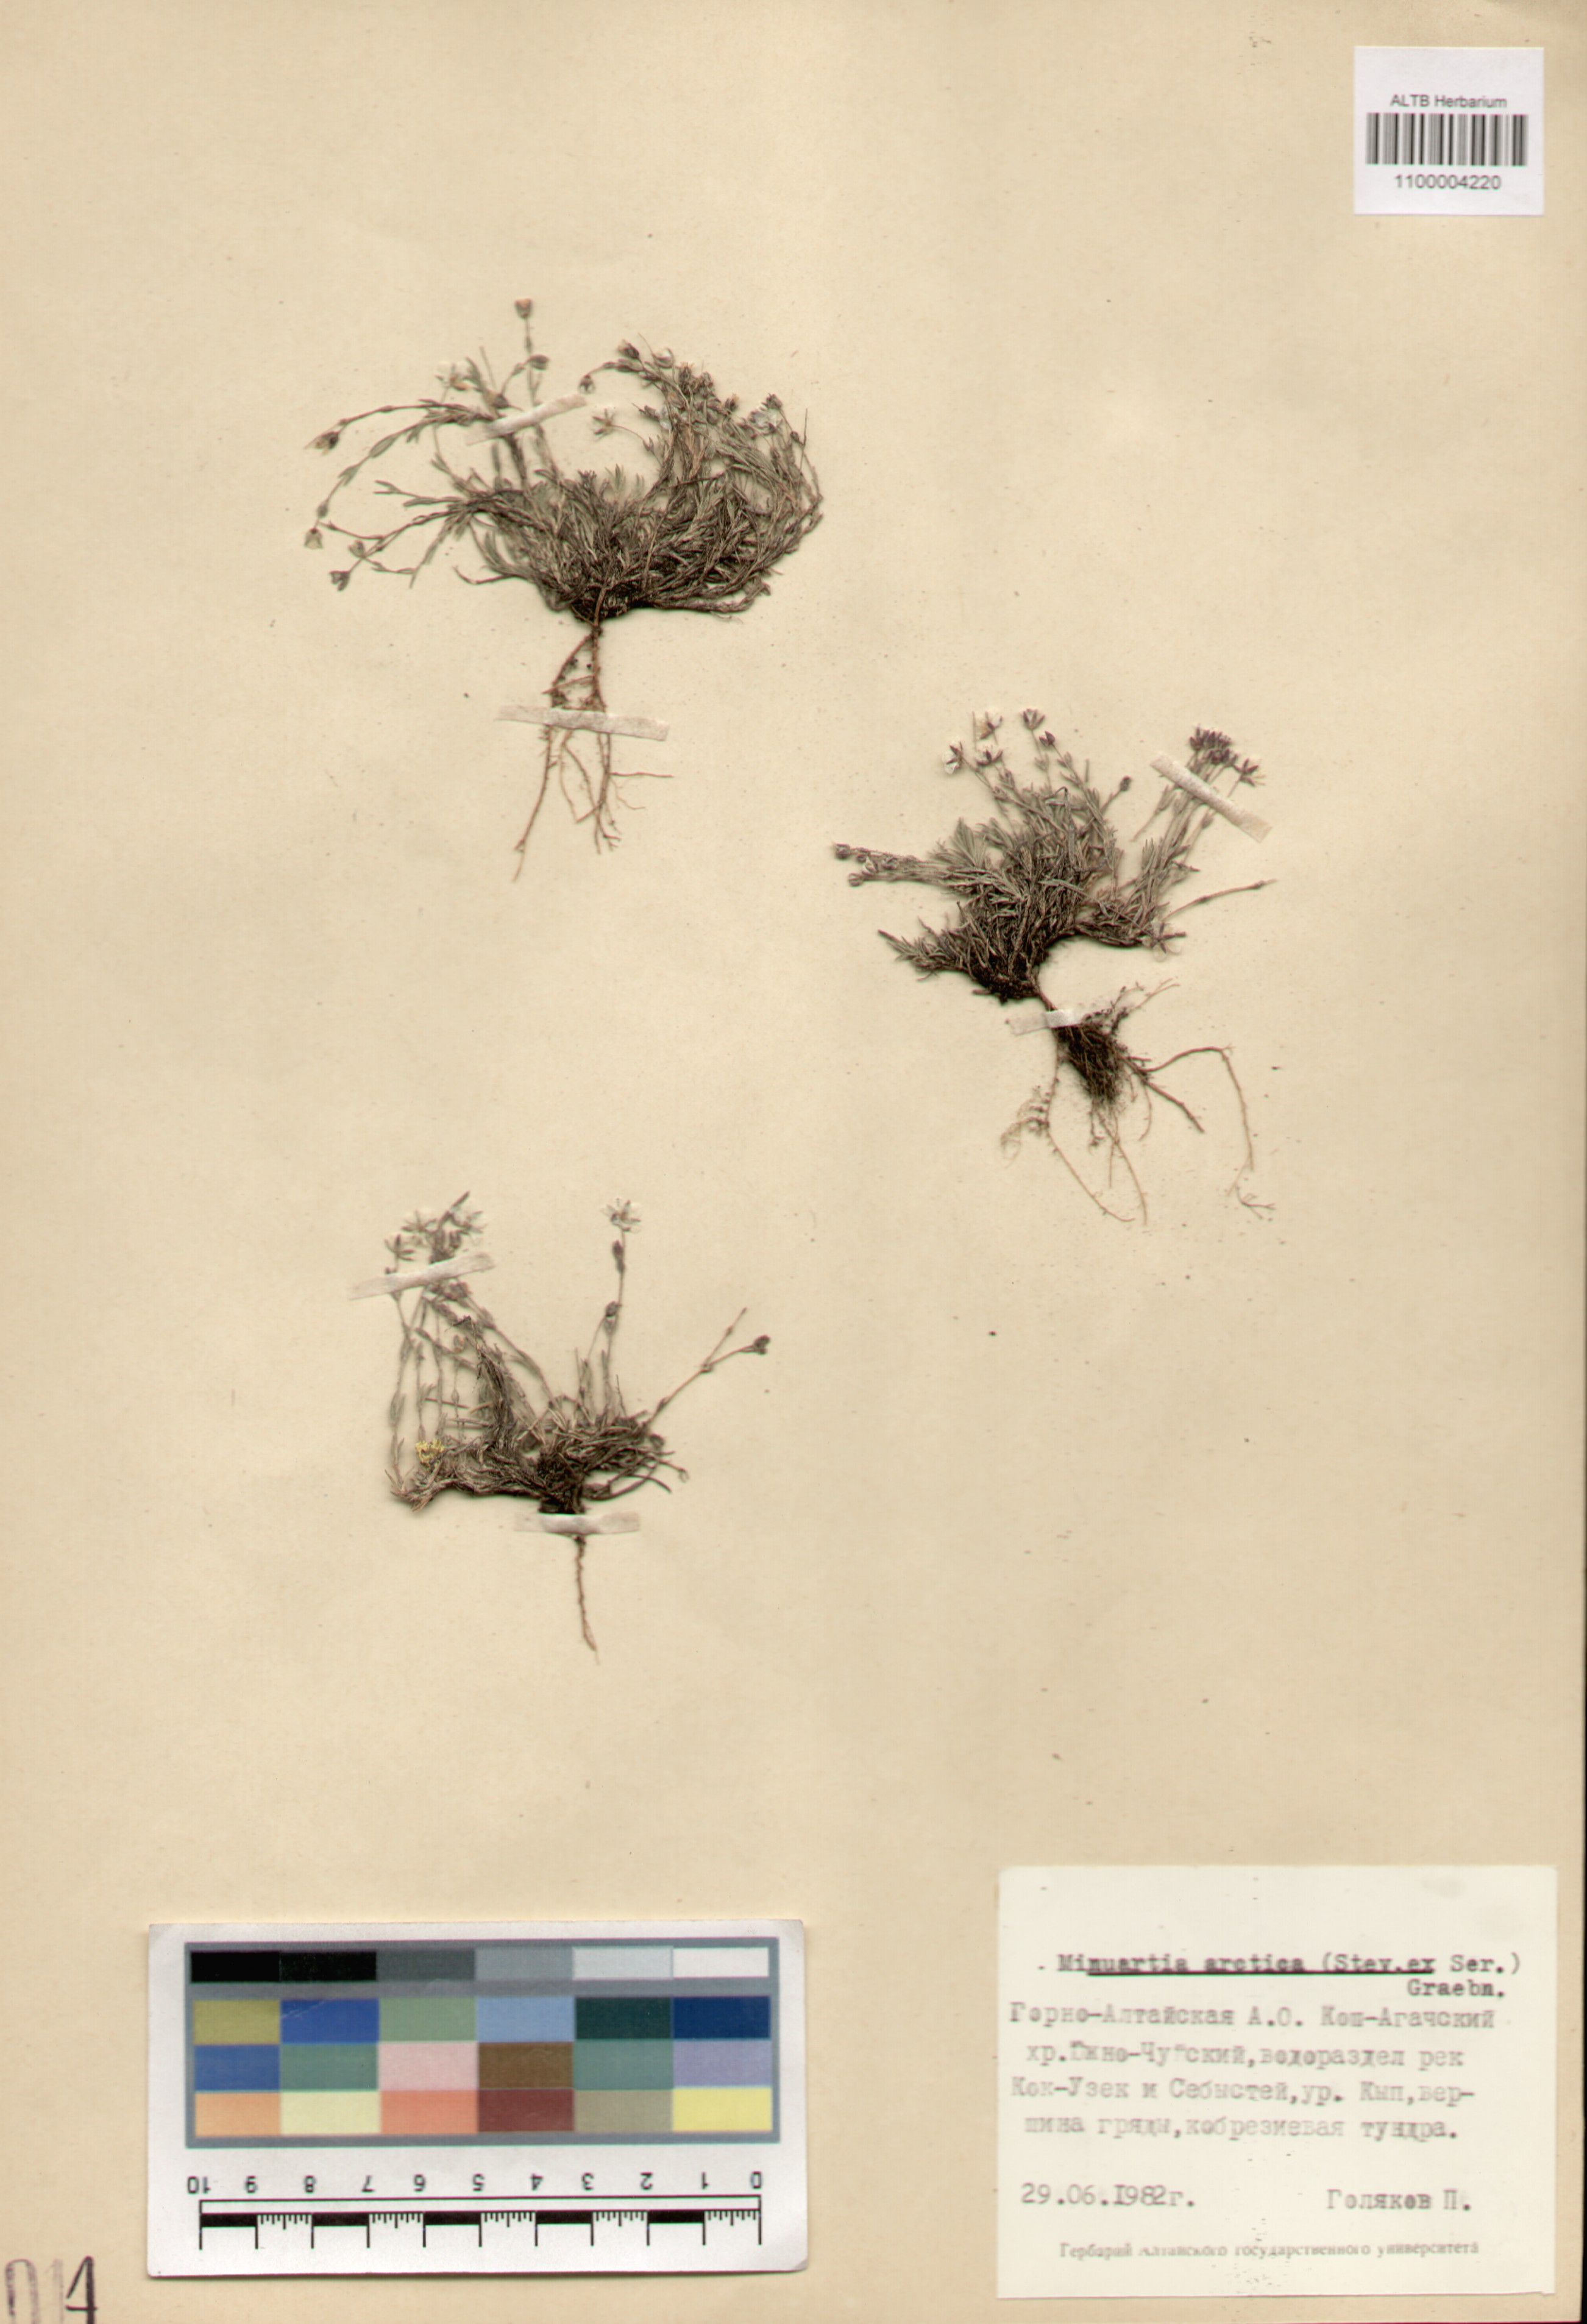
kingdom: Plantae
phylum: Tracheophyta
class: Magnoliopsida
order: Caryophyllales
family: Caryophyllaceae
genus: Cherleria
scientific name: Cherleria arctica
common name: Arctic sandwort
